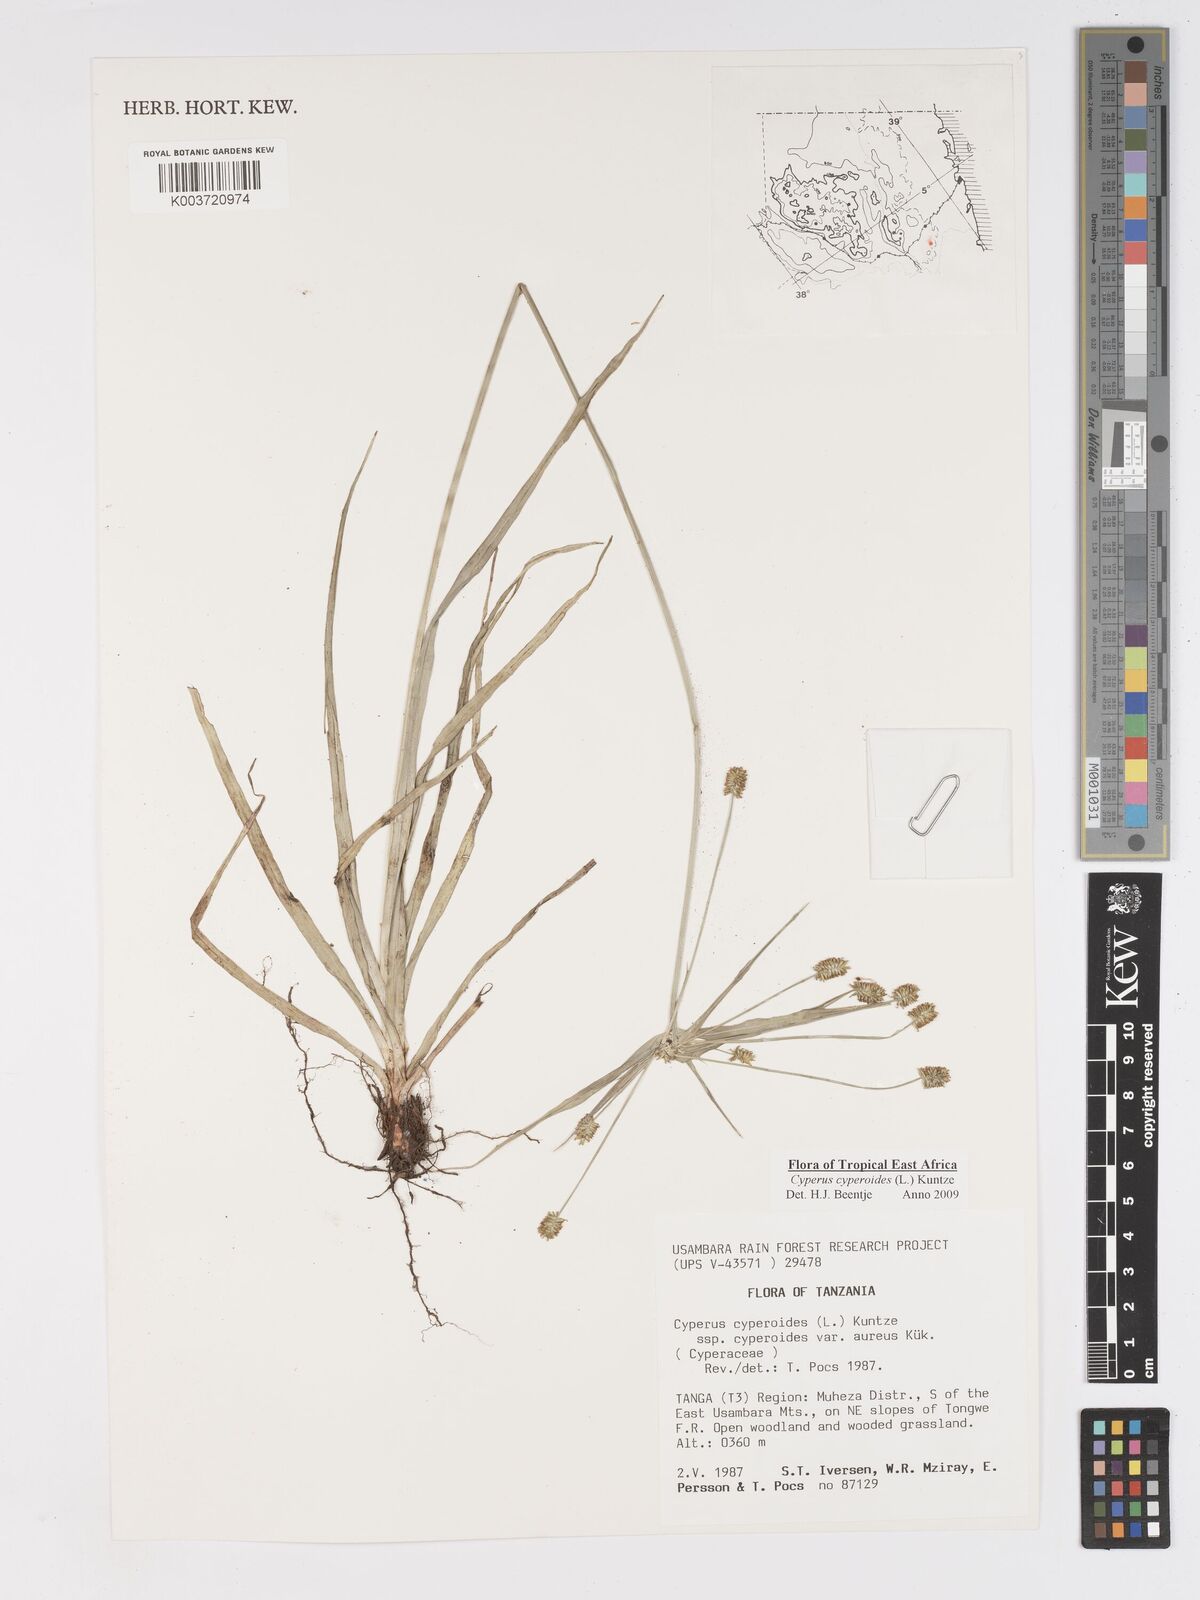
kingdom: Plantae
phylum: Tracheophyta
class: Liliopsida
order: Poales
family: Cyperaceae
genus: Cyperus
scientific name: Cyperus cyperoides
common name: Pacific island flat sedge
